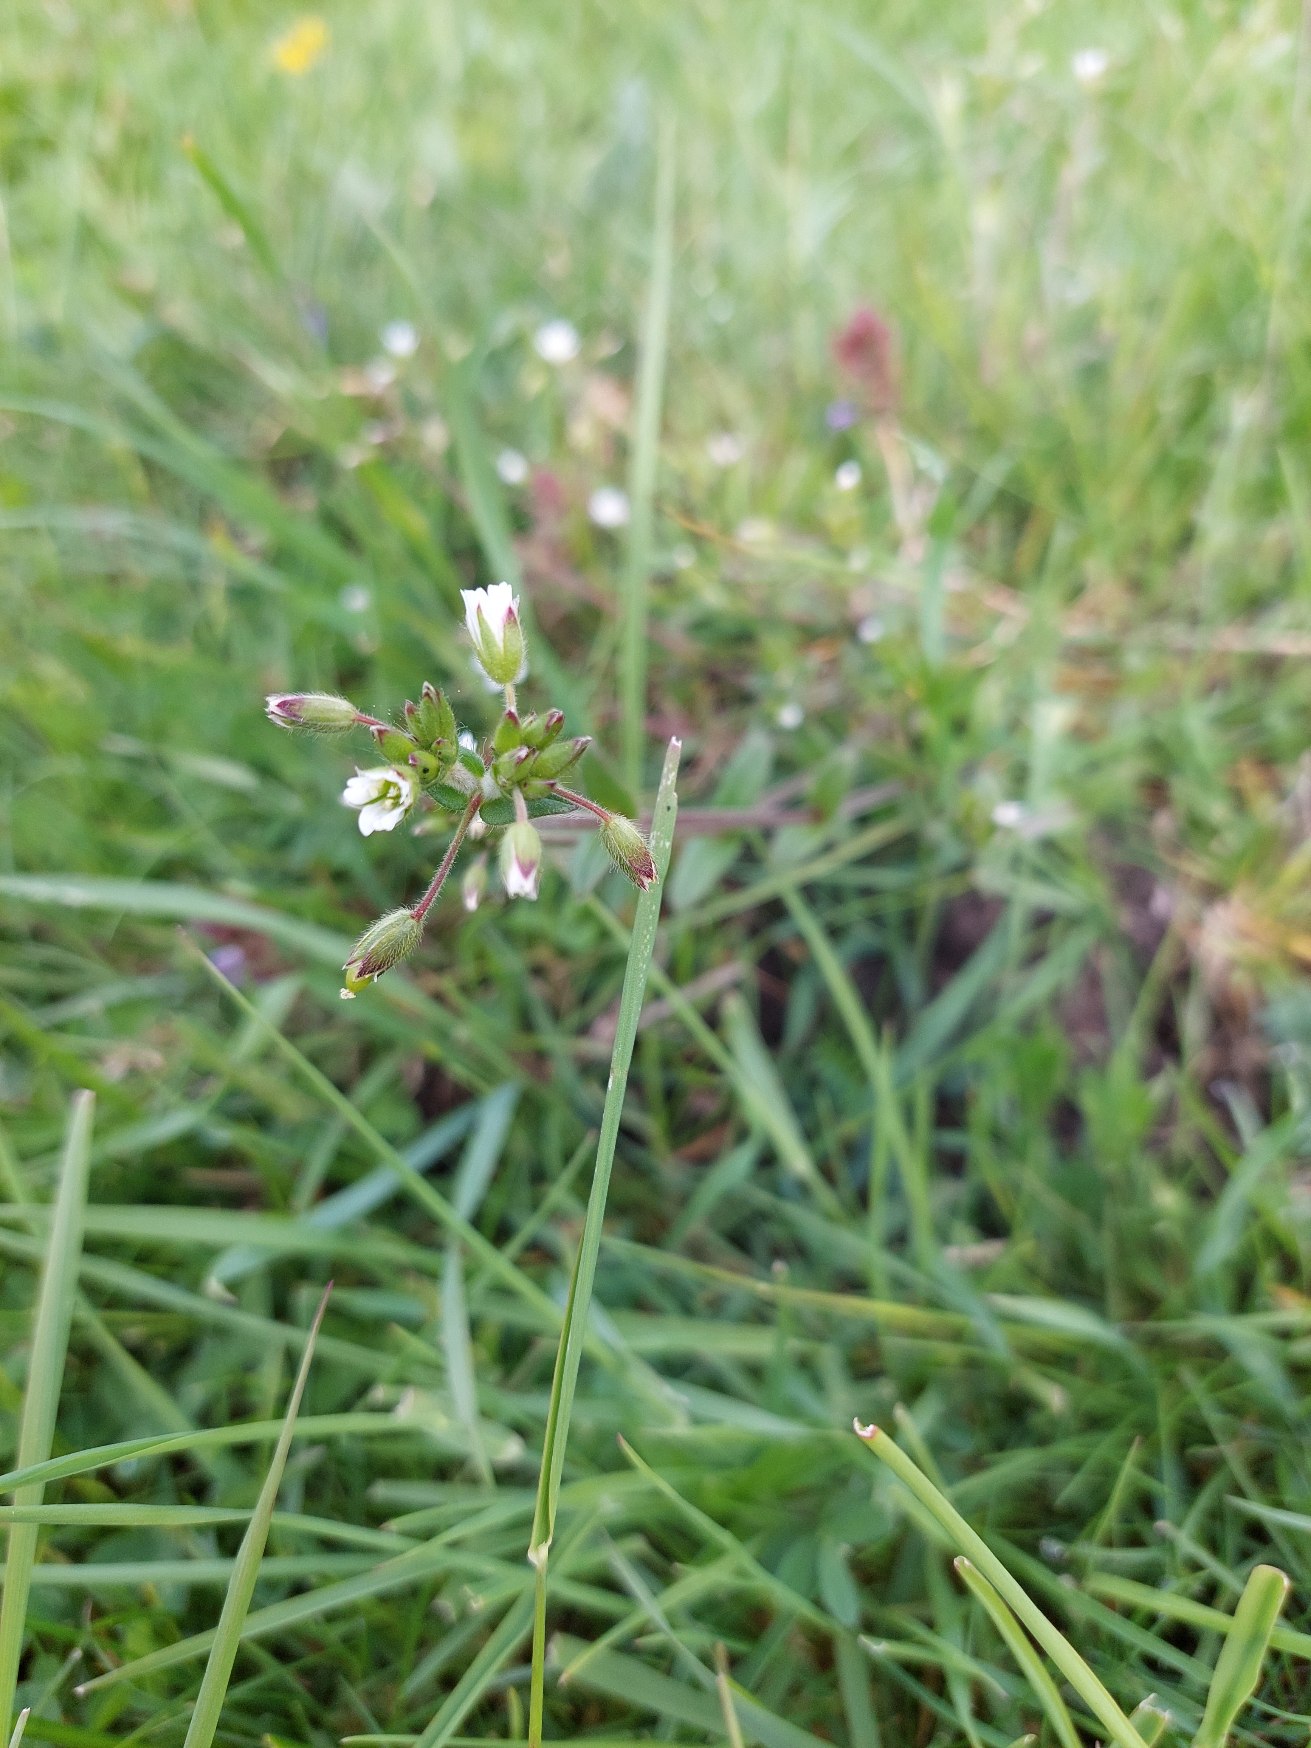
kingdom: Plantae
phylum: Tracheophyta
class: Magnoliopsida
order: Caryophyllales
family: Caryophyllaceae
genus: Cerastium
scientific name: Cerastium fontanum
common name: Almindelig hønsetarm
